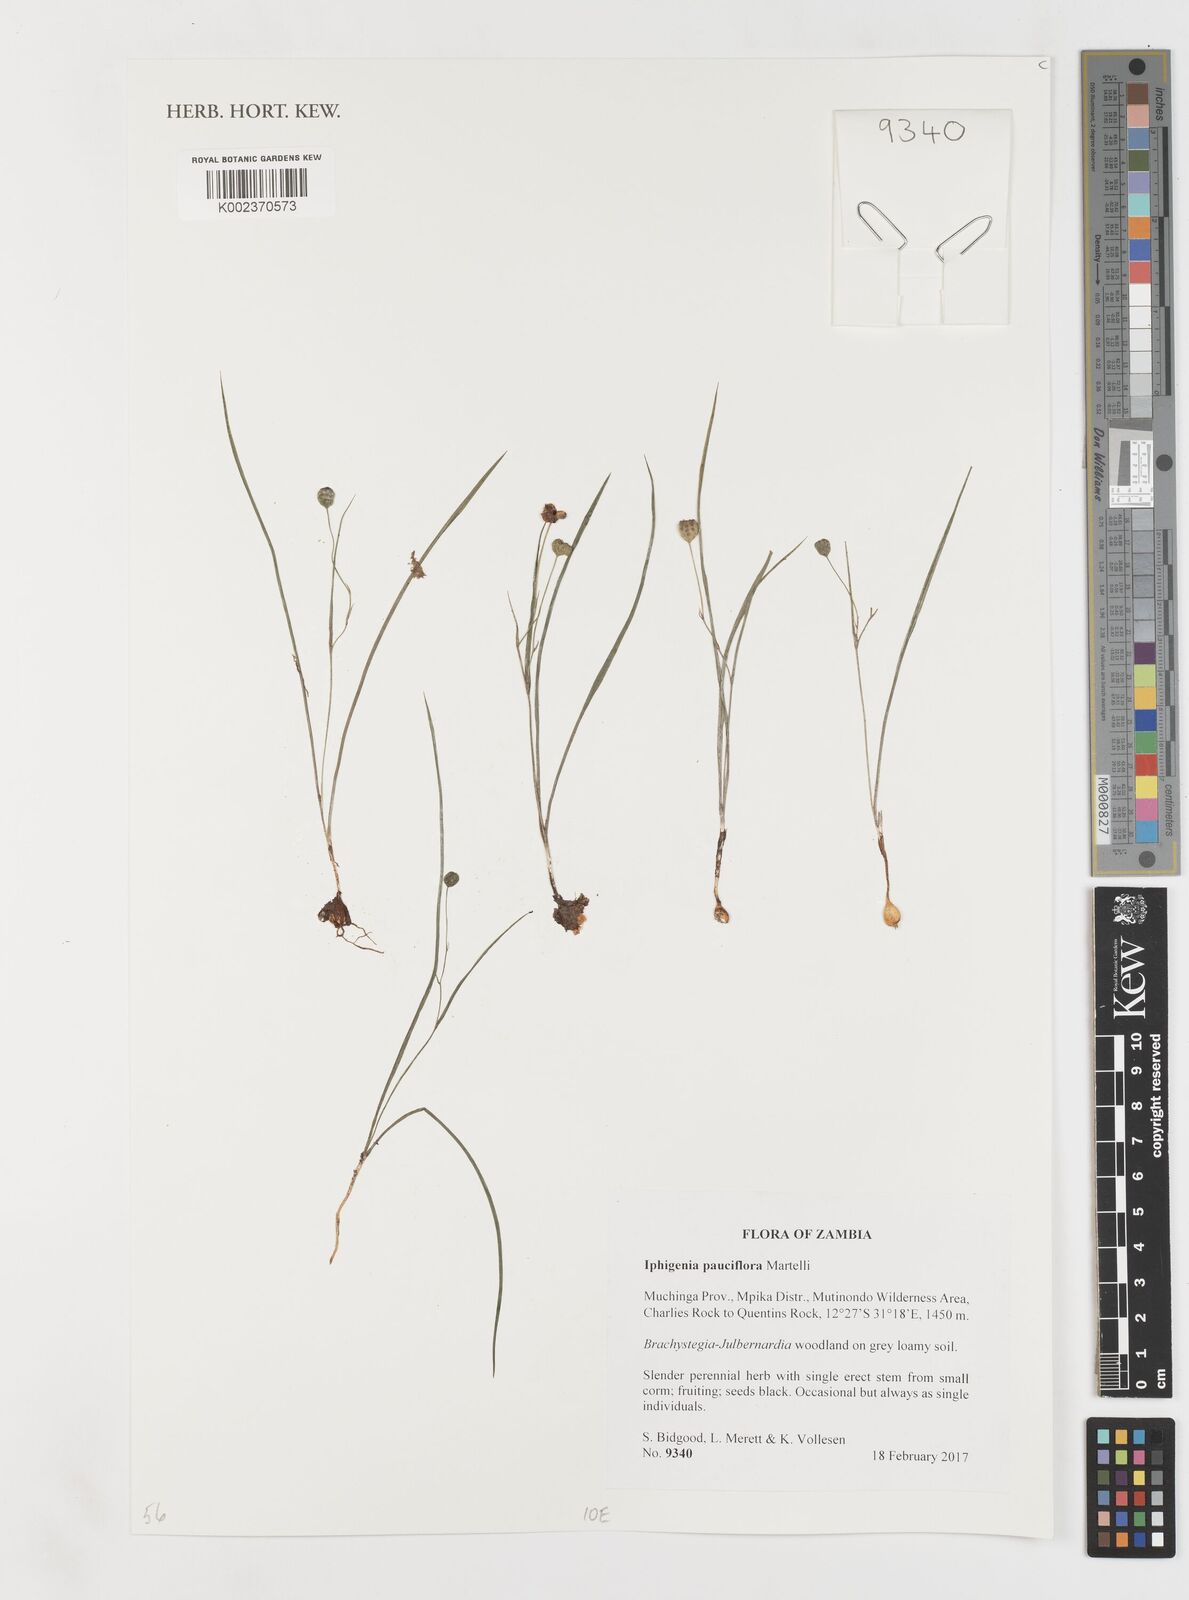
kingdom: Plantae
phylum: Tracheophyta
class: Liliopsida
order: Liliales
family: Colchicaceae
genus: Iphigenia
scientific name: Iphigenia pauciflora
